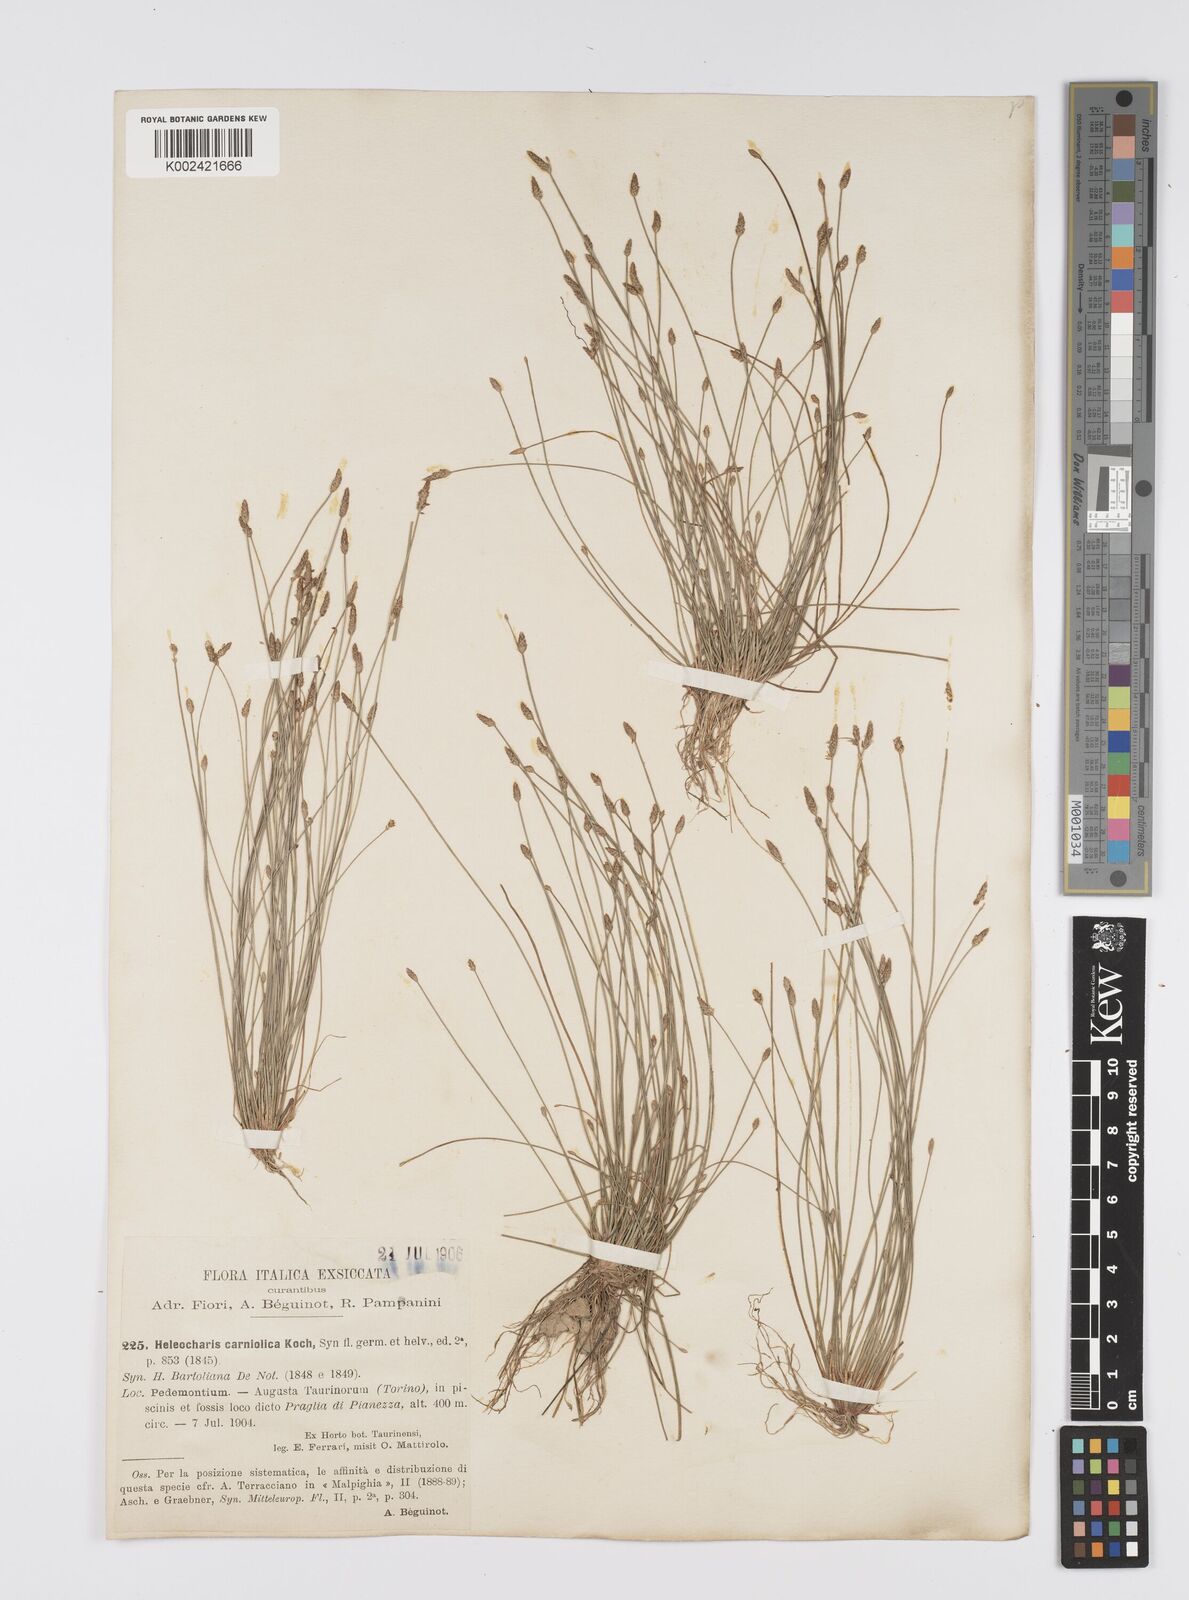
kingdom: Plantae
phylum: Tracheophyta
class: Liliopsida
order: Poales
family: Cyperaceae
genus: Eleocharis
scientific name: Eleocharis carniolica
